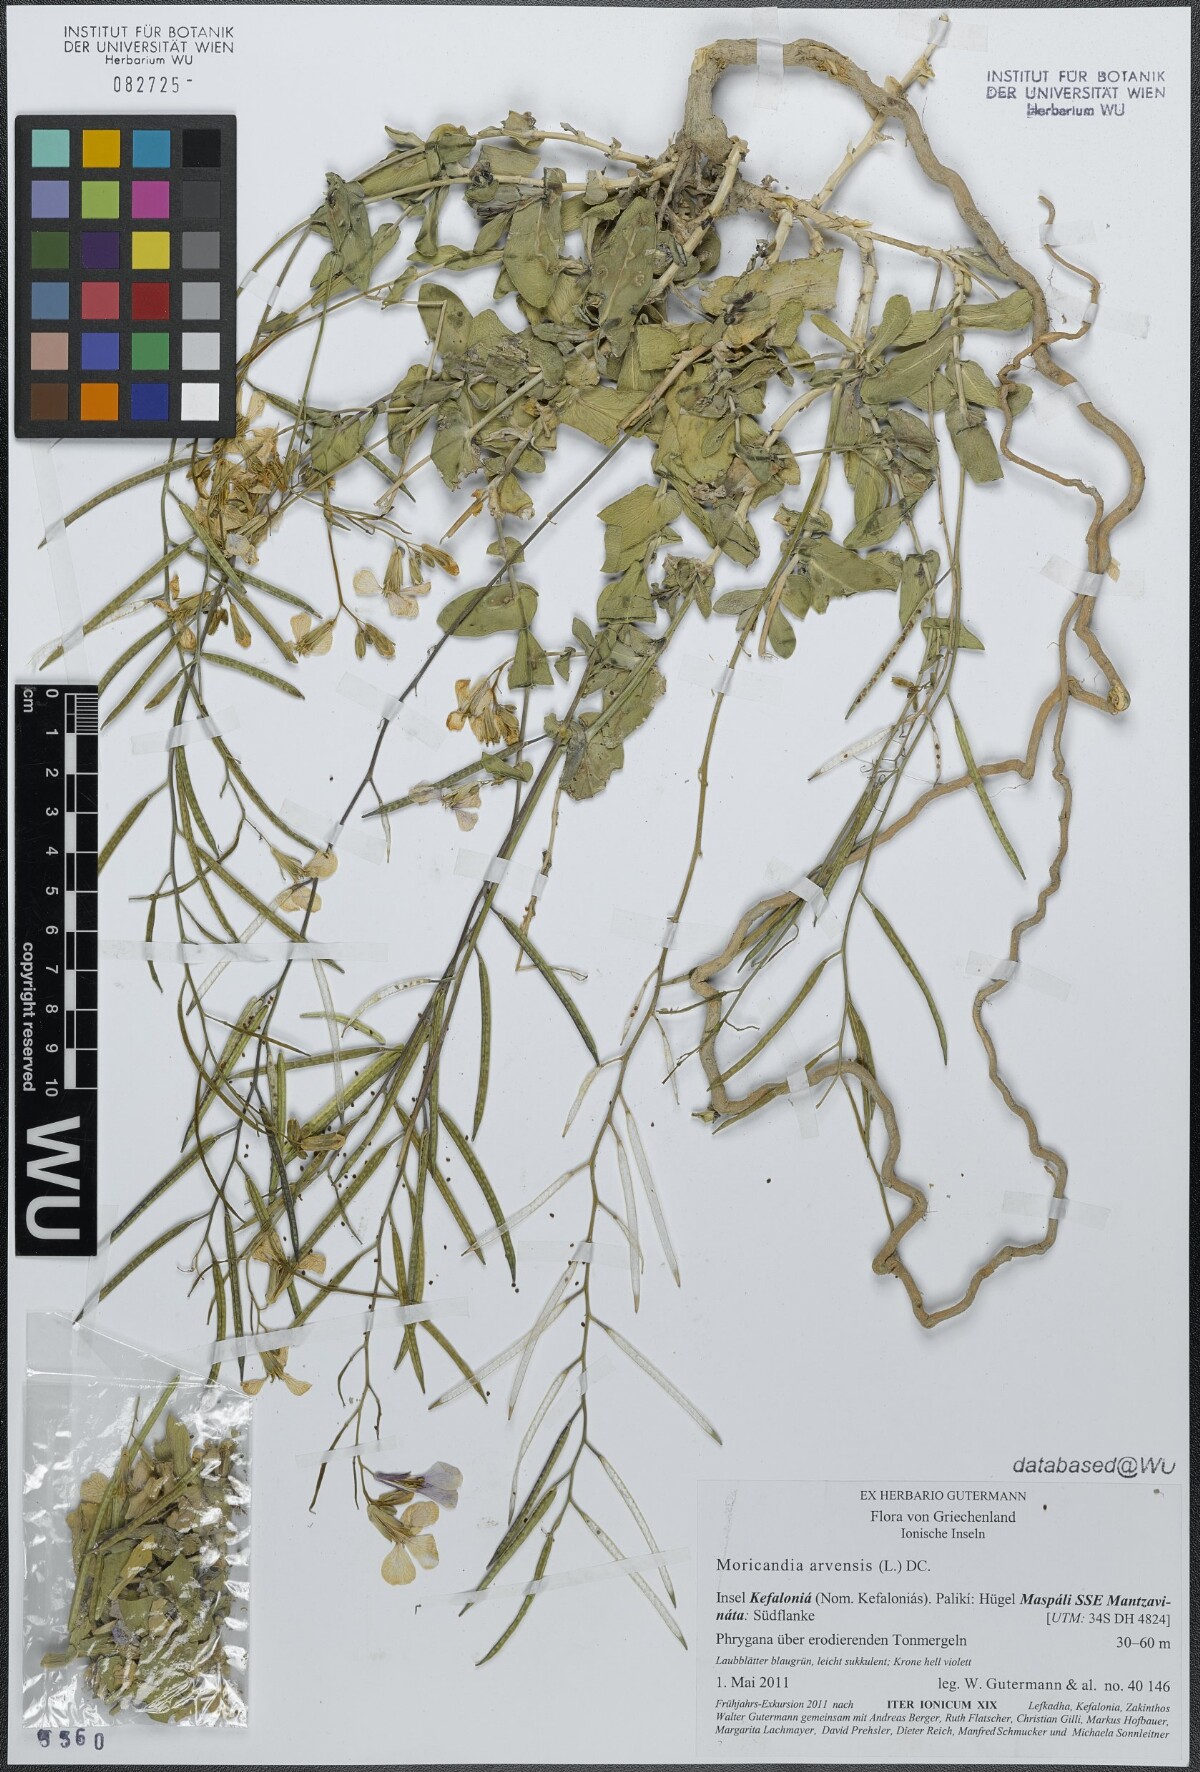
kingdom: Plantae
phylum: Tracheophyta
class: Magnoliopsida
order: Brassicales
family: Brassicaceae
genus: Moricandia
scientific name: Moricandia arvensis
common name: Purple mistress
